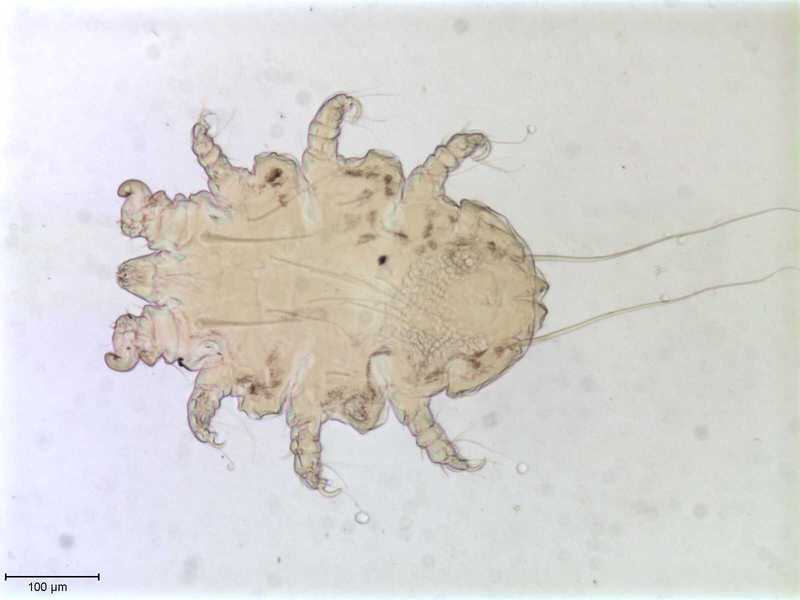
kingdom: Animalia
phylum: Arthropoda
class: Arachnida
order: Trombidiformes
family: Myobiidae
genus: Eadiea
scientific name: Eadiea desmanae
